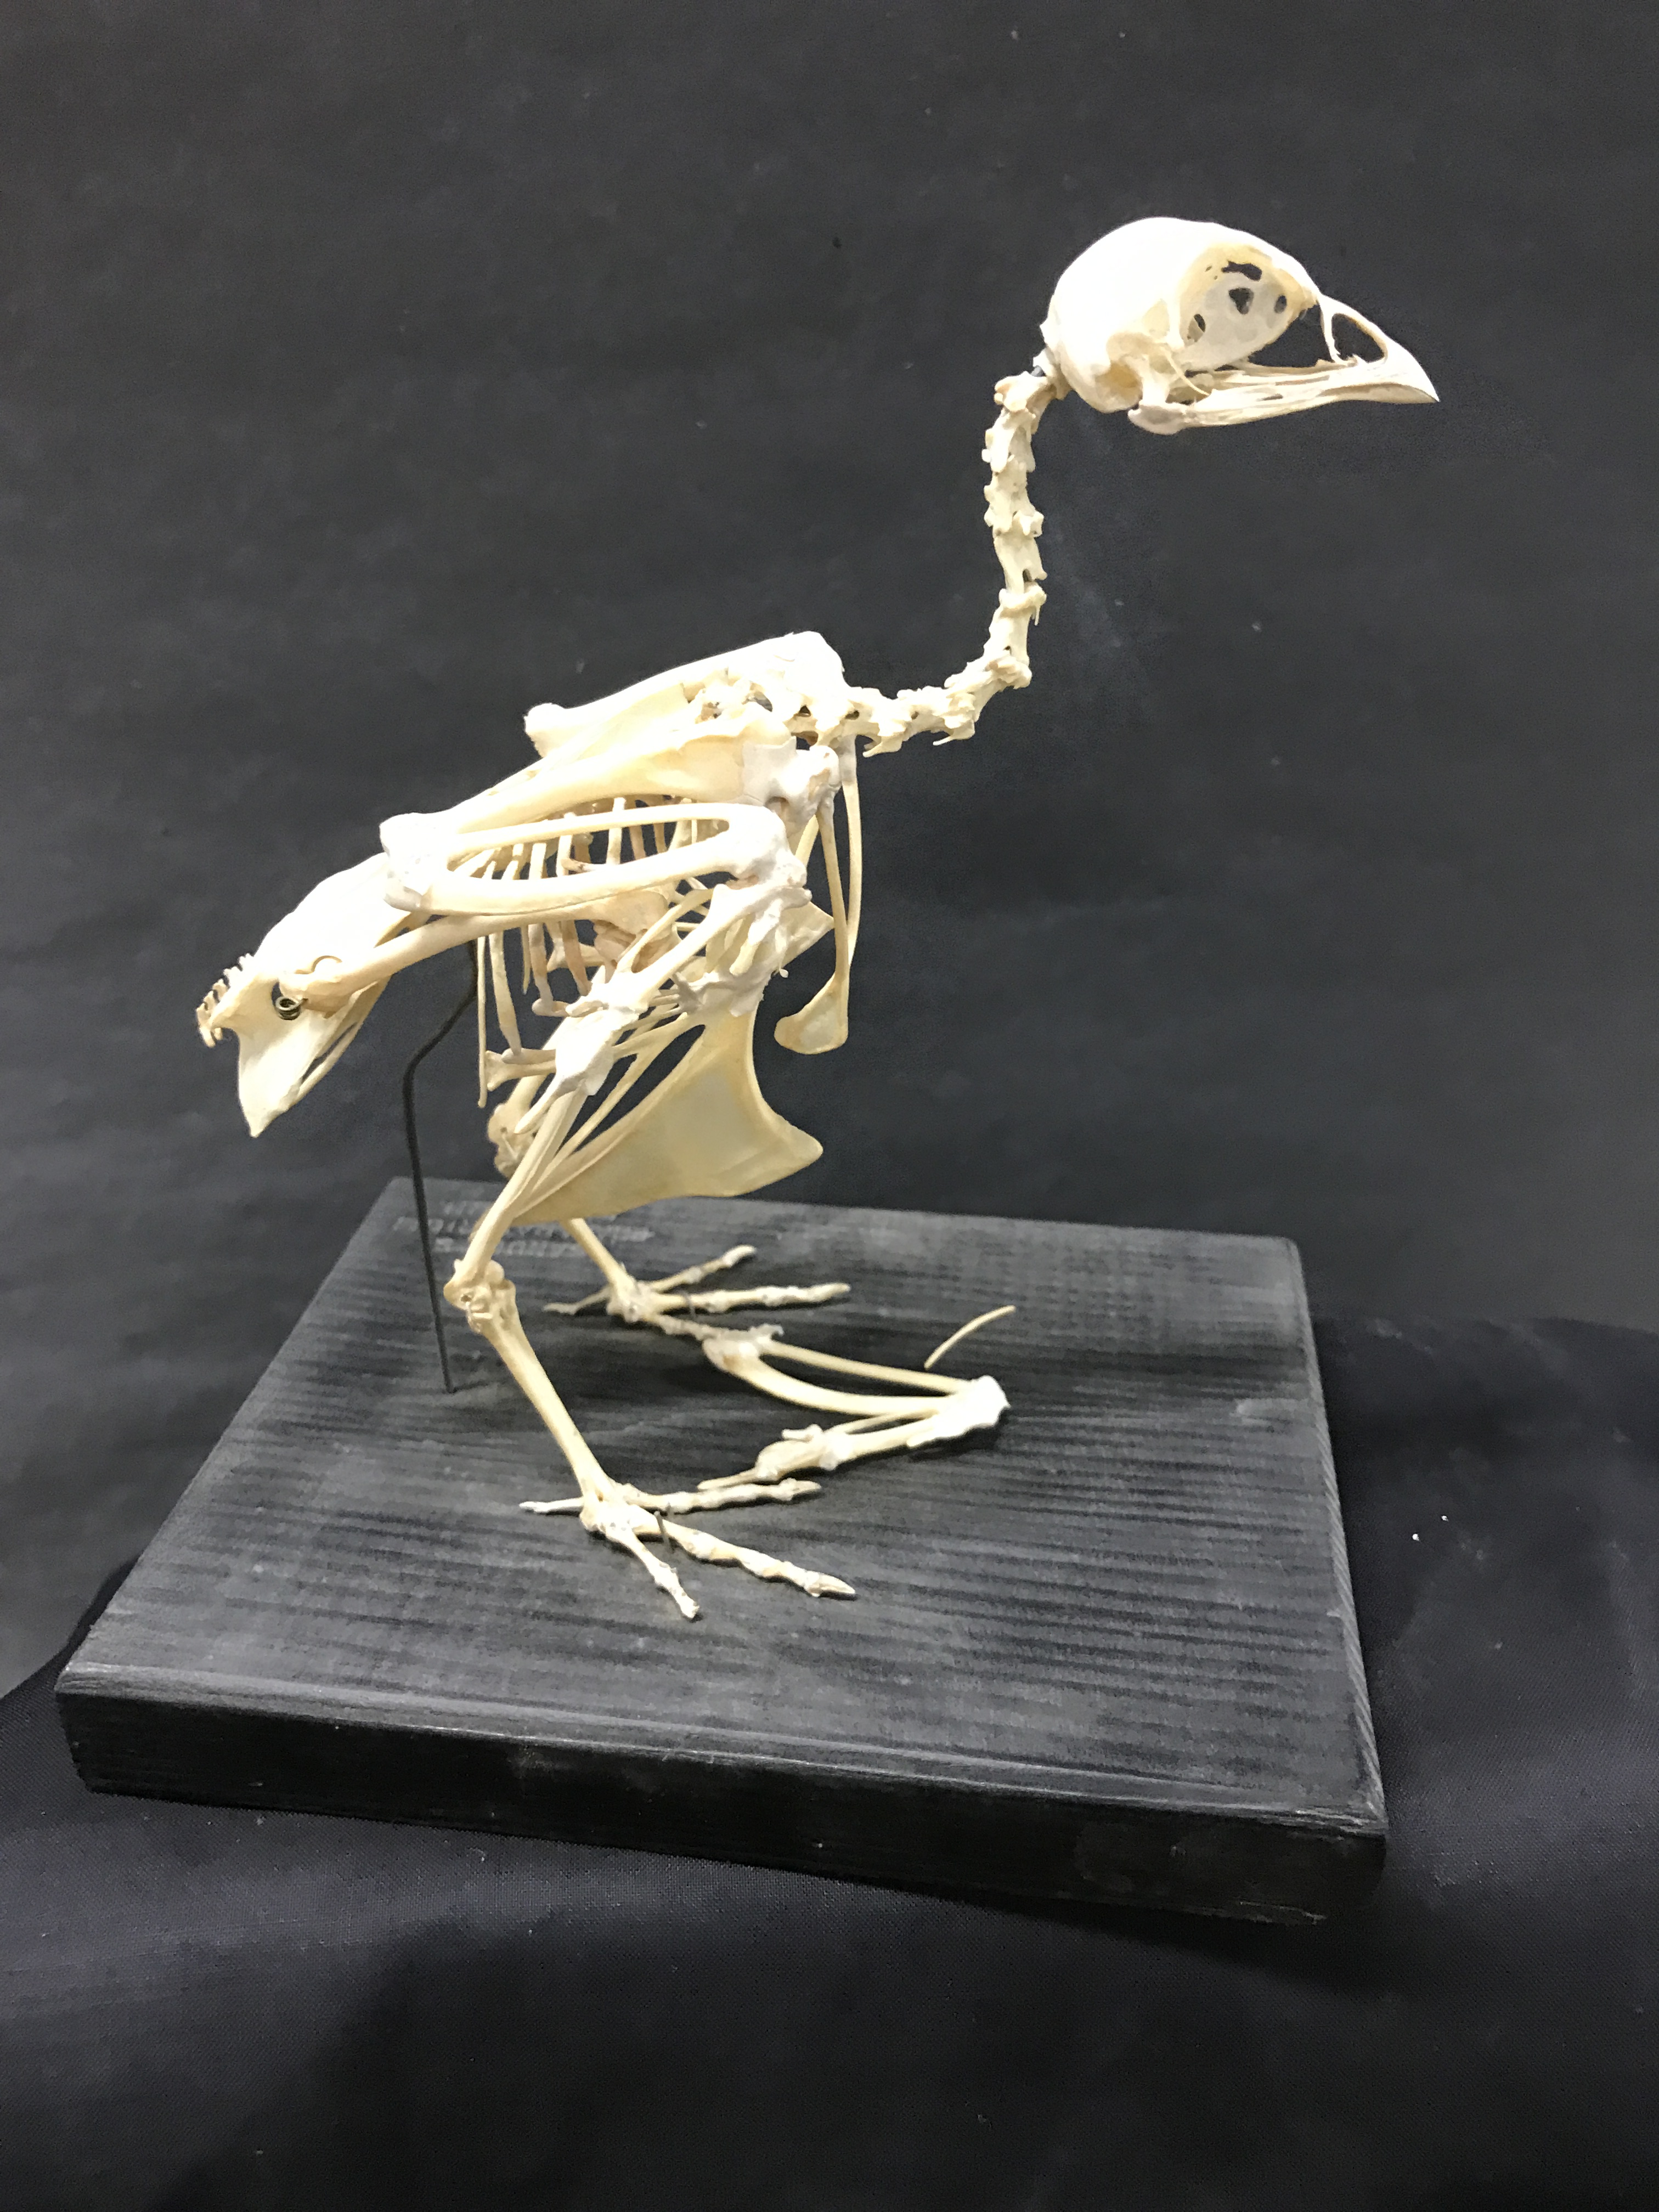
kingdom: Animalia
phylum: Chordata
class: Aves
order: Galliformes
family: Phasianidae
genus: Perdix
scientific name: Perdix perdix
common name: Grey partridge
